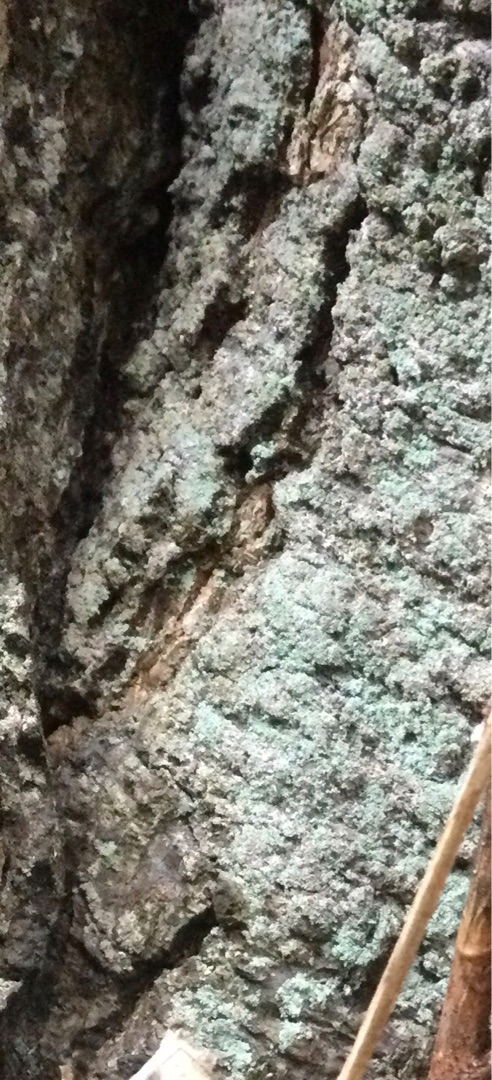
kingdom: Fungi
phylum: Ascomycota
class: Lecanoromycetes
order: Lecanorales
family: Stereocaulaceae
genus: Lepraria
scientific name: Lepraria
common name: Støvlav
